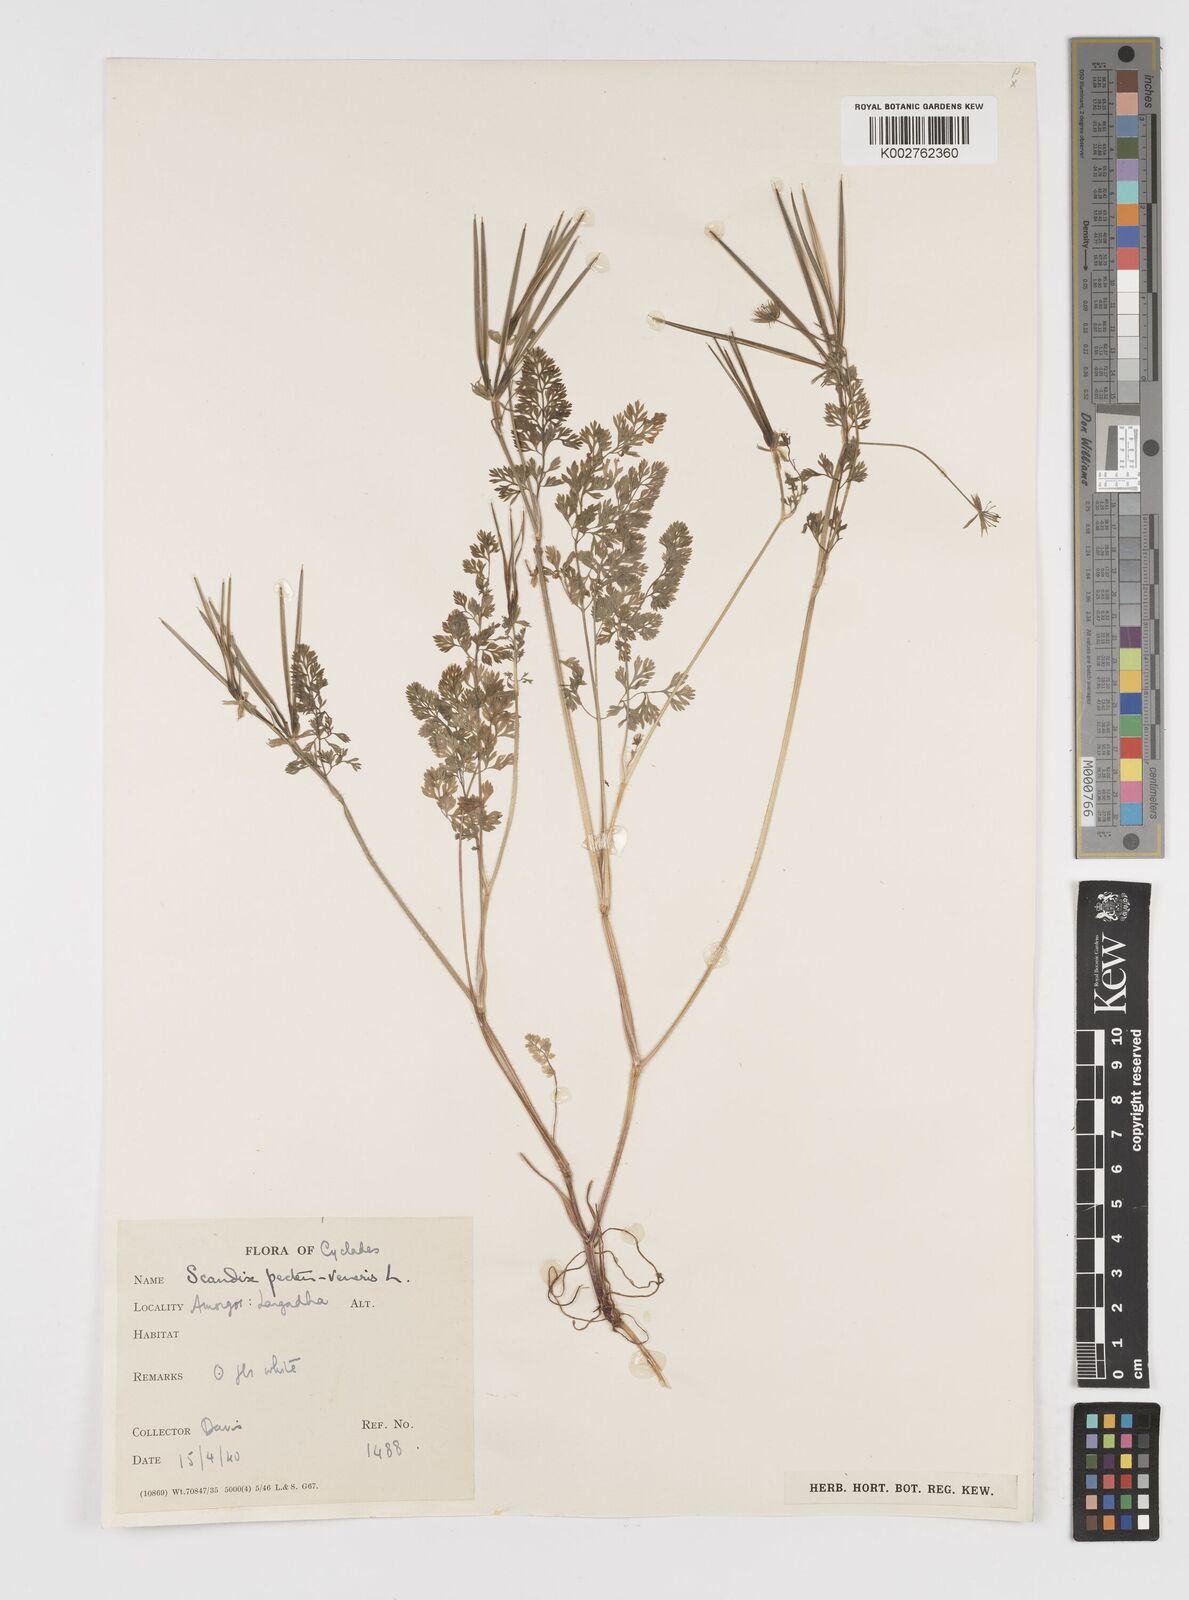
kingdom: Plantae
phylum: Tracheophyta
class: Magnoliopsida
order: Apiales
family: Apiaceae
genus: Scandix
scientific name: Scandix pecten-veneris
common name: Shepherd's-needle
